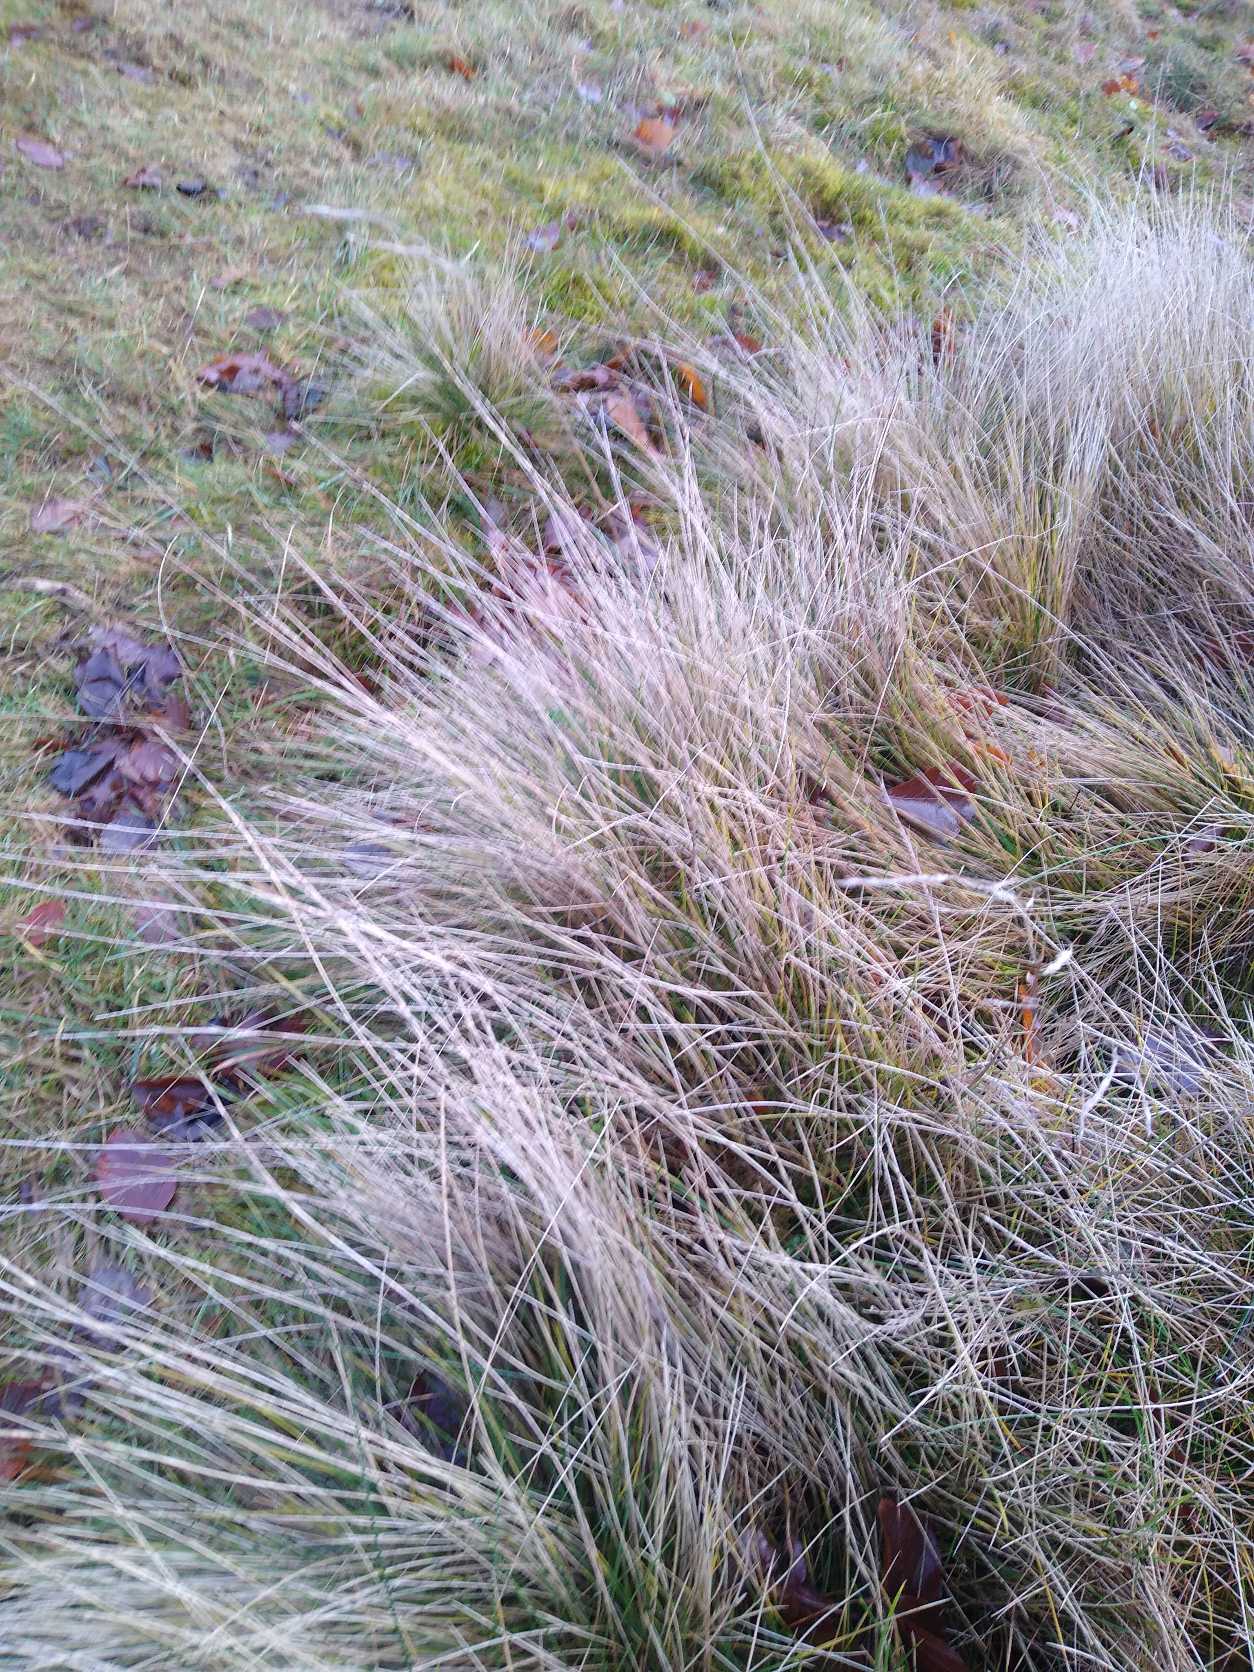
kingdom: Plantae
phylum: Tracheophyta
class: Liliopsida
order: Poales
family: Poaceae
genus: Nardus
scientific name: Nardus stricta
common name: Katteskæg
